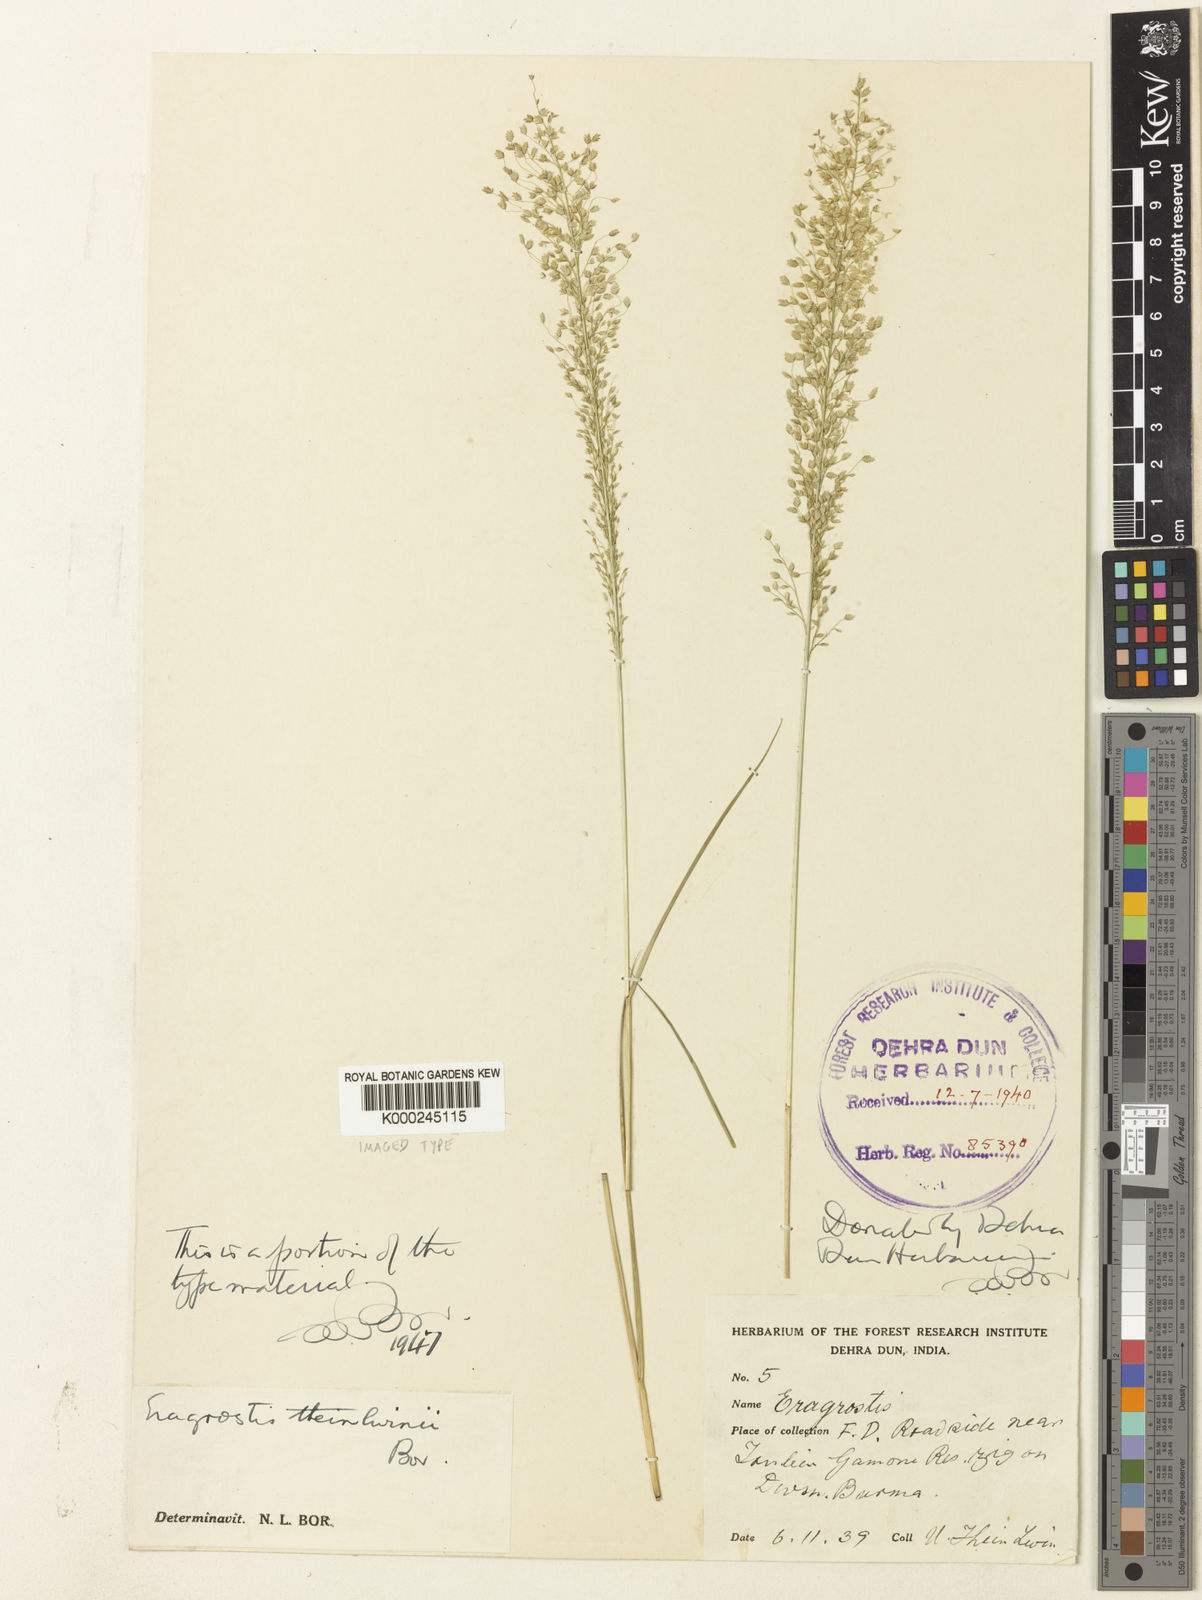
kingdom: Plantae
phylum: Tracheophyta
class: Liliopsida
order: Poales
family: Poaceae
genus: Eragrostis
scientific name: Eragrostis theinlwinii
